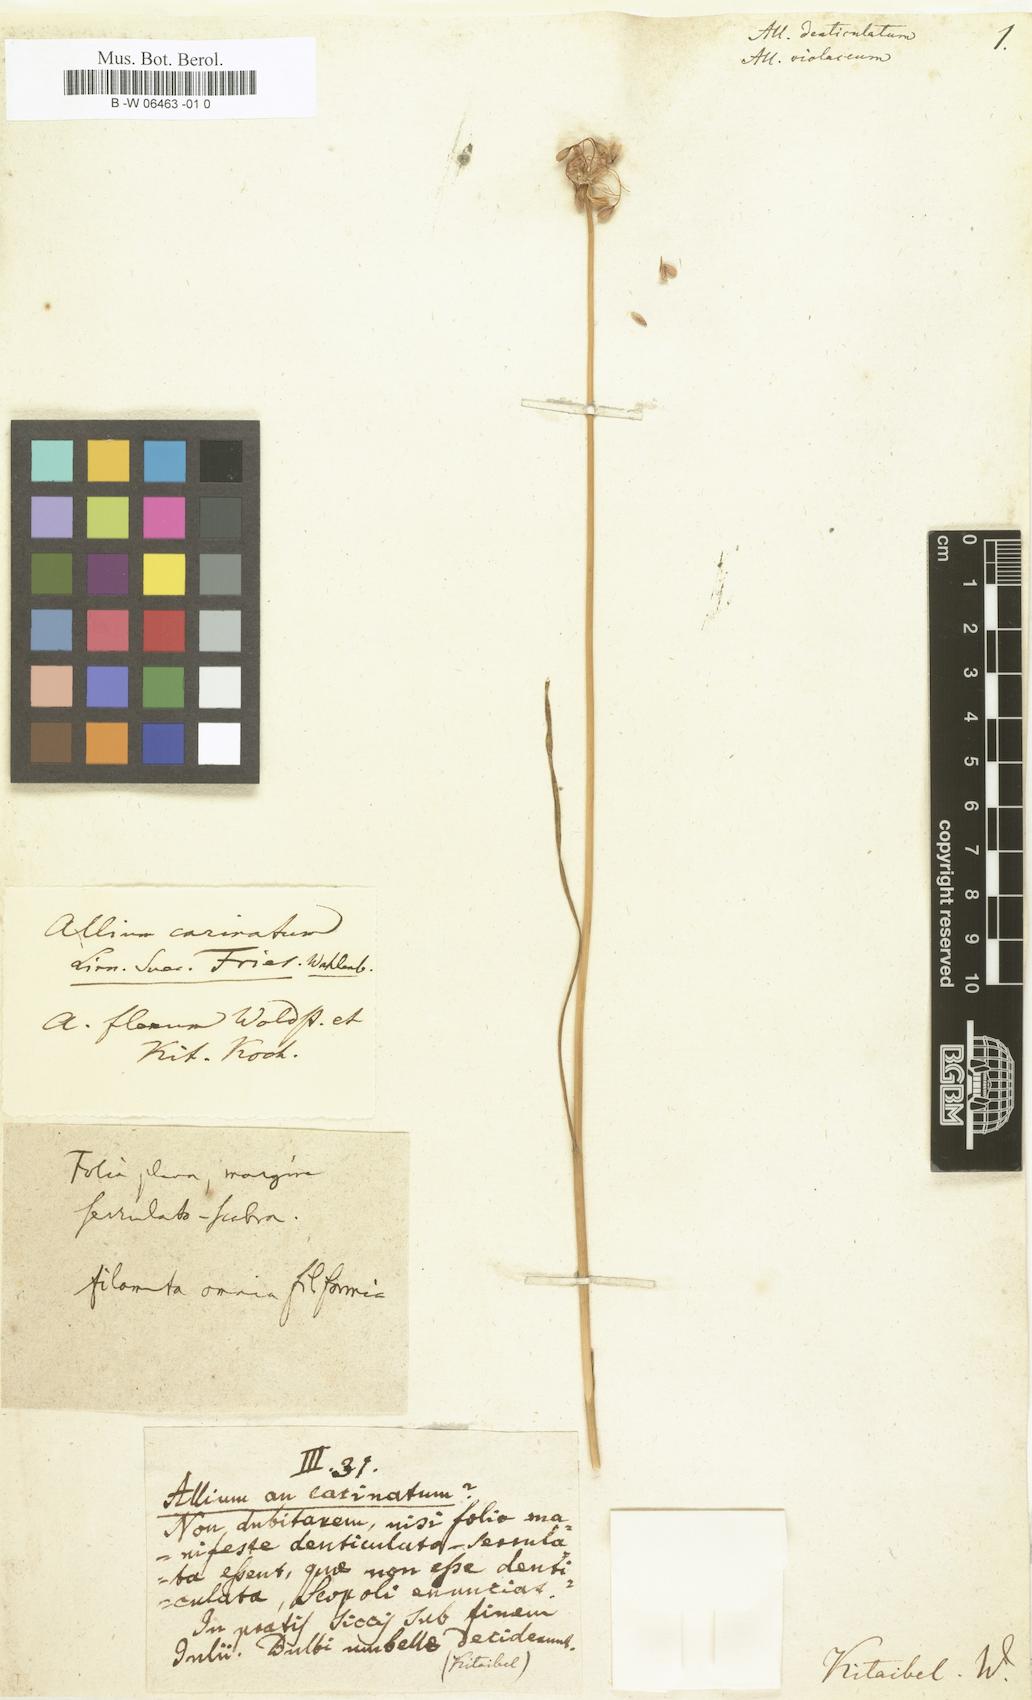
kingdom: Plantae
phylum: Tracheophyta
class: Liliopsida
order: Asparagales
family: Amaryllidaceae
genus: Allium
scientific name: Allium
